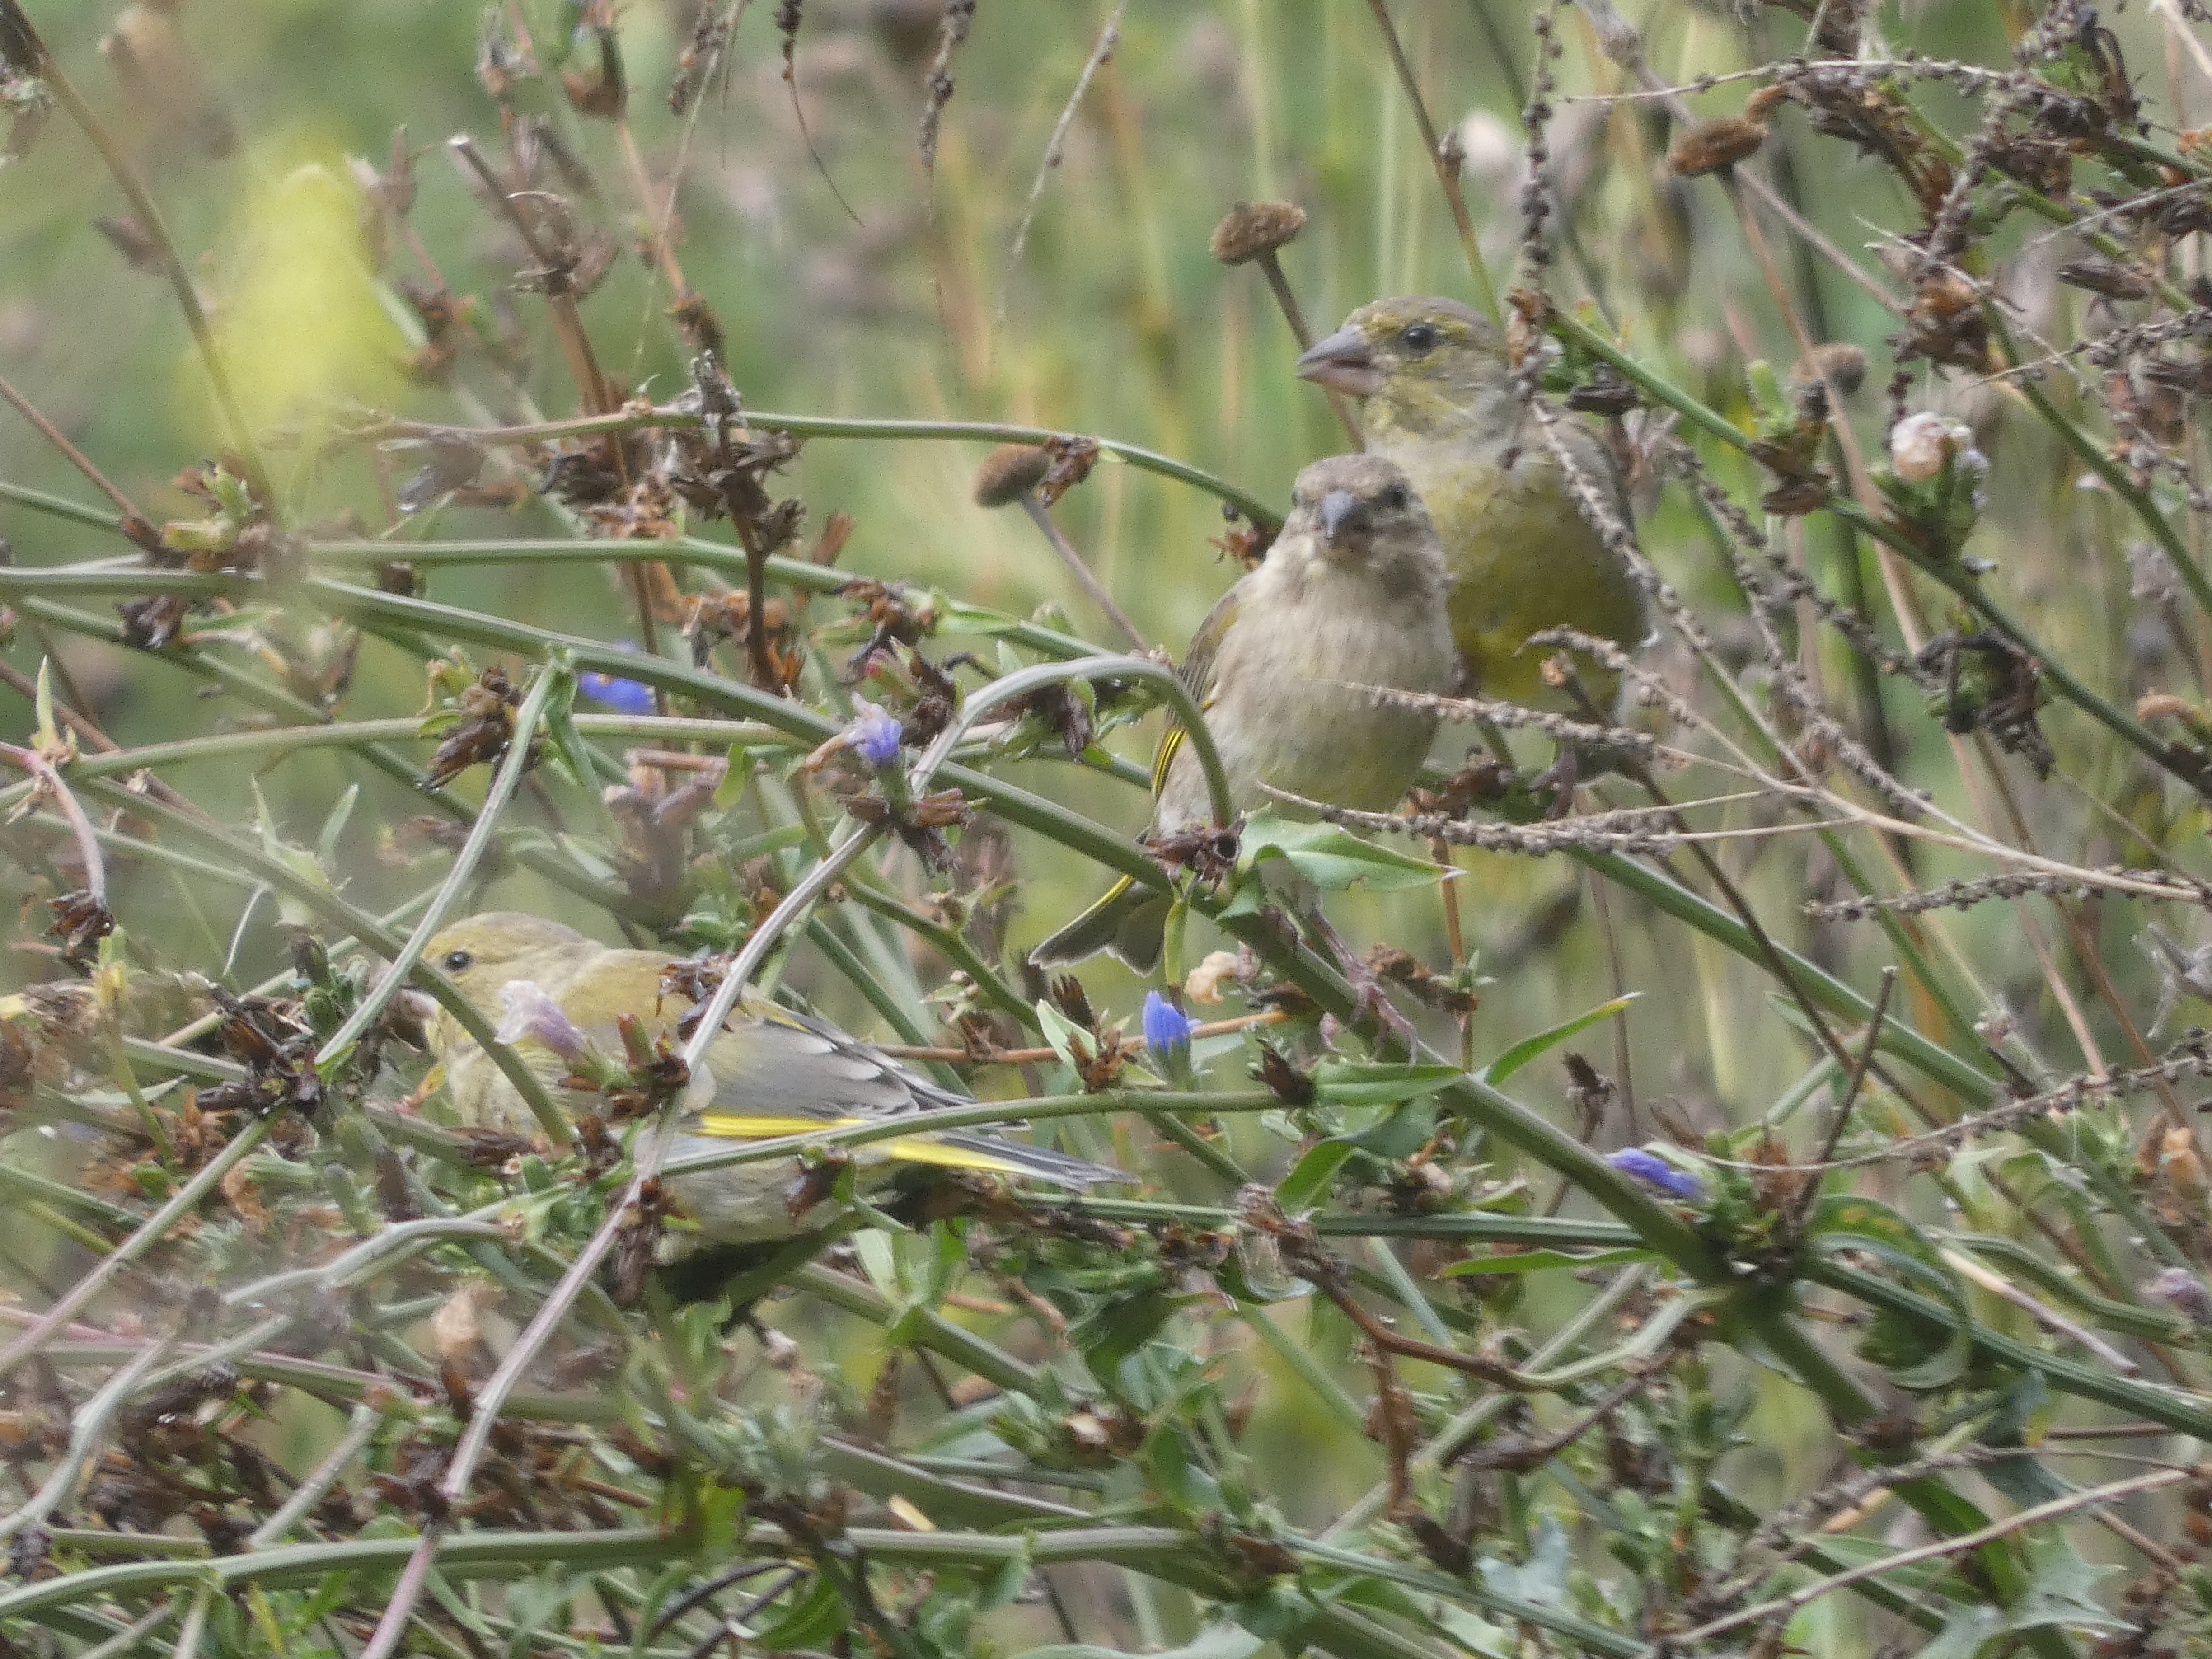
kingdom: Plantae
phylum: Tracheophyta
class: Liliopsida
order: Poales
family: Poaceae
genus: Chloris
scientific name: Chloris chloris
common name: Grønirisk
